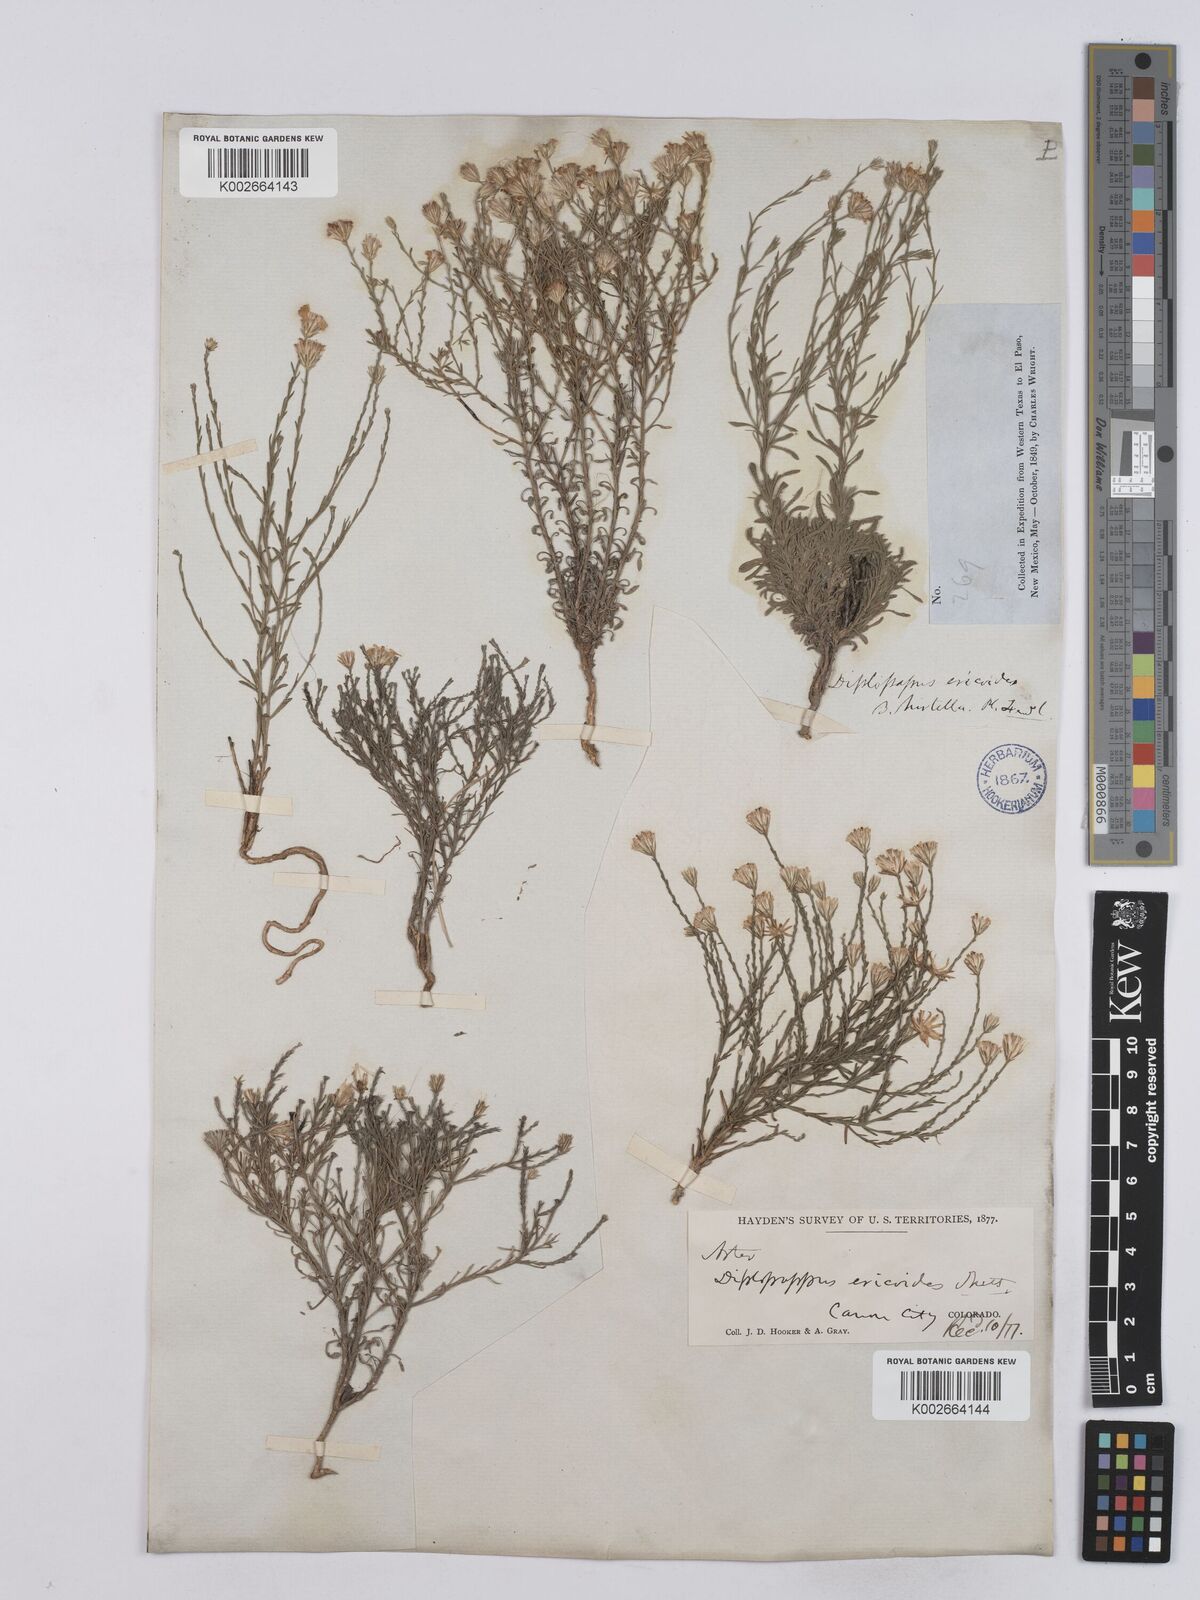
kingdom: Plantae
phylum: Tracheophyta
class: Magnoliopsida
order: Asterales
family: Asteraceae
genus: Chaetopappa
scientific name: Chaetopappa ericoides
